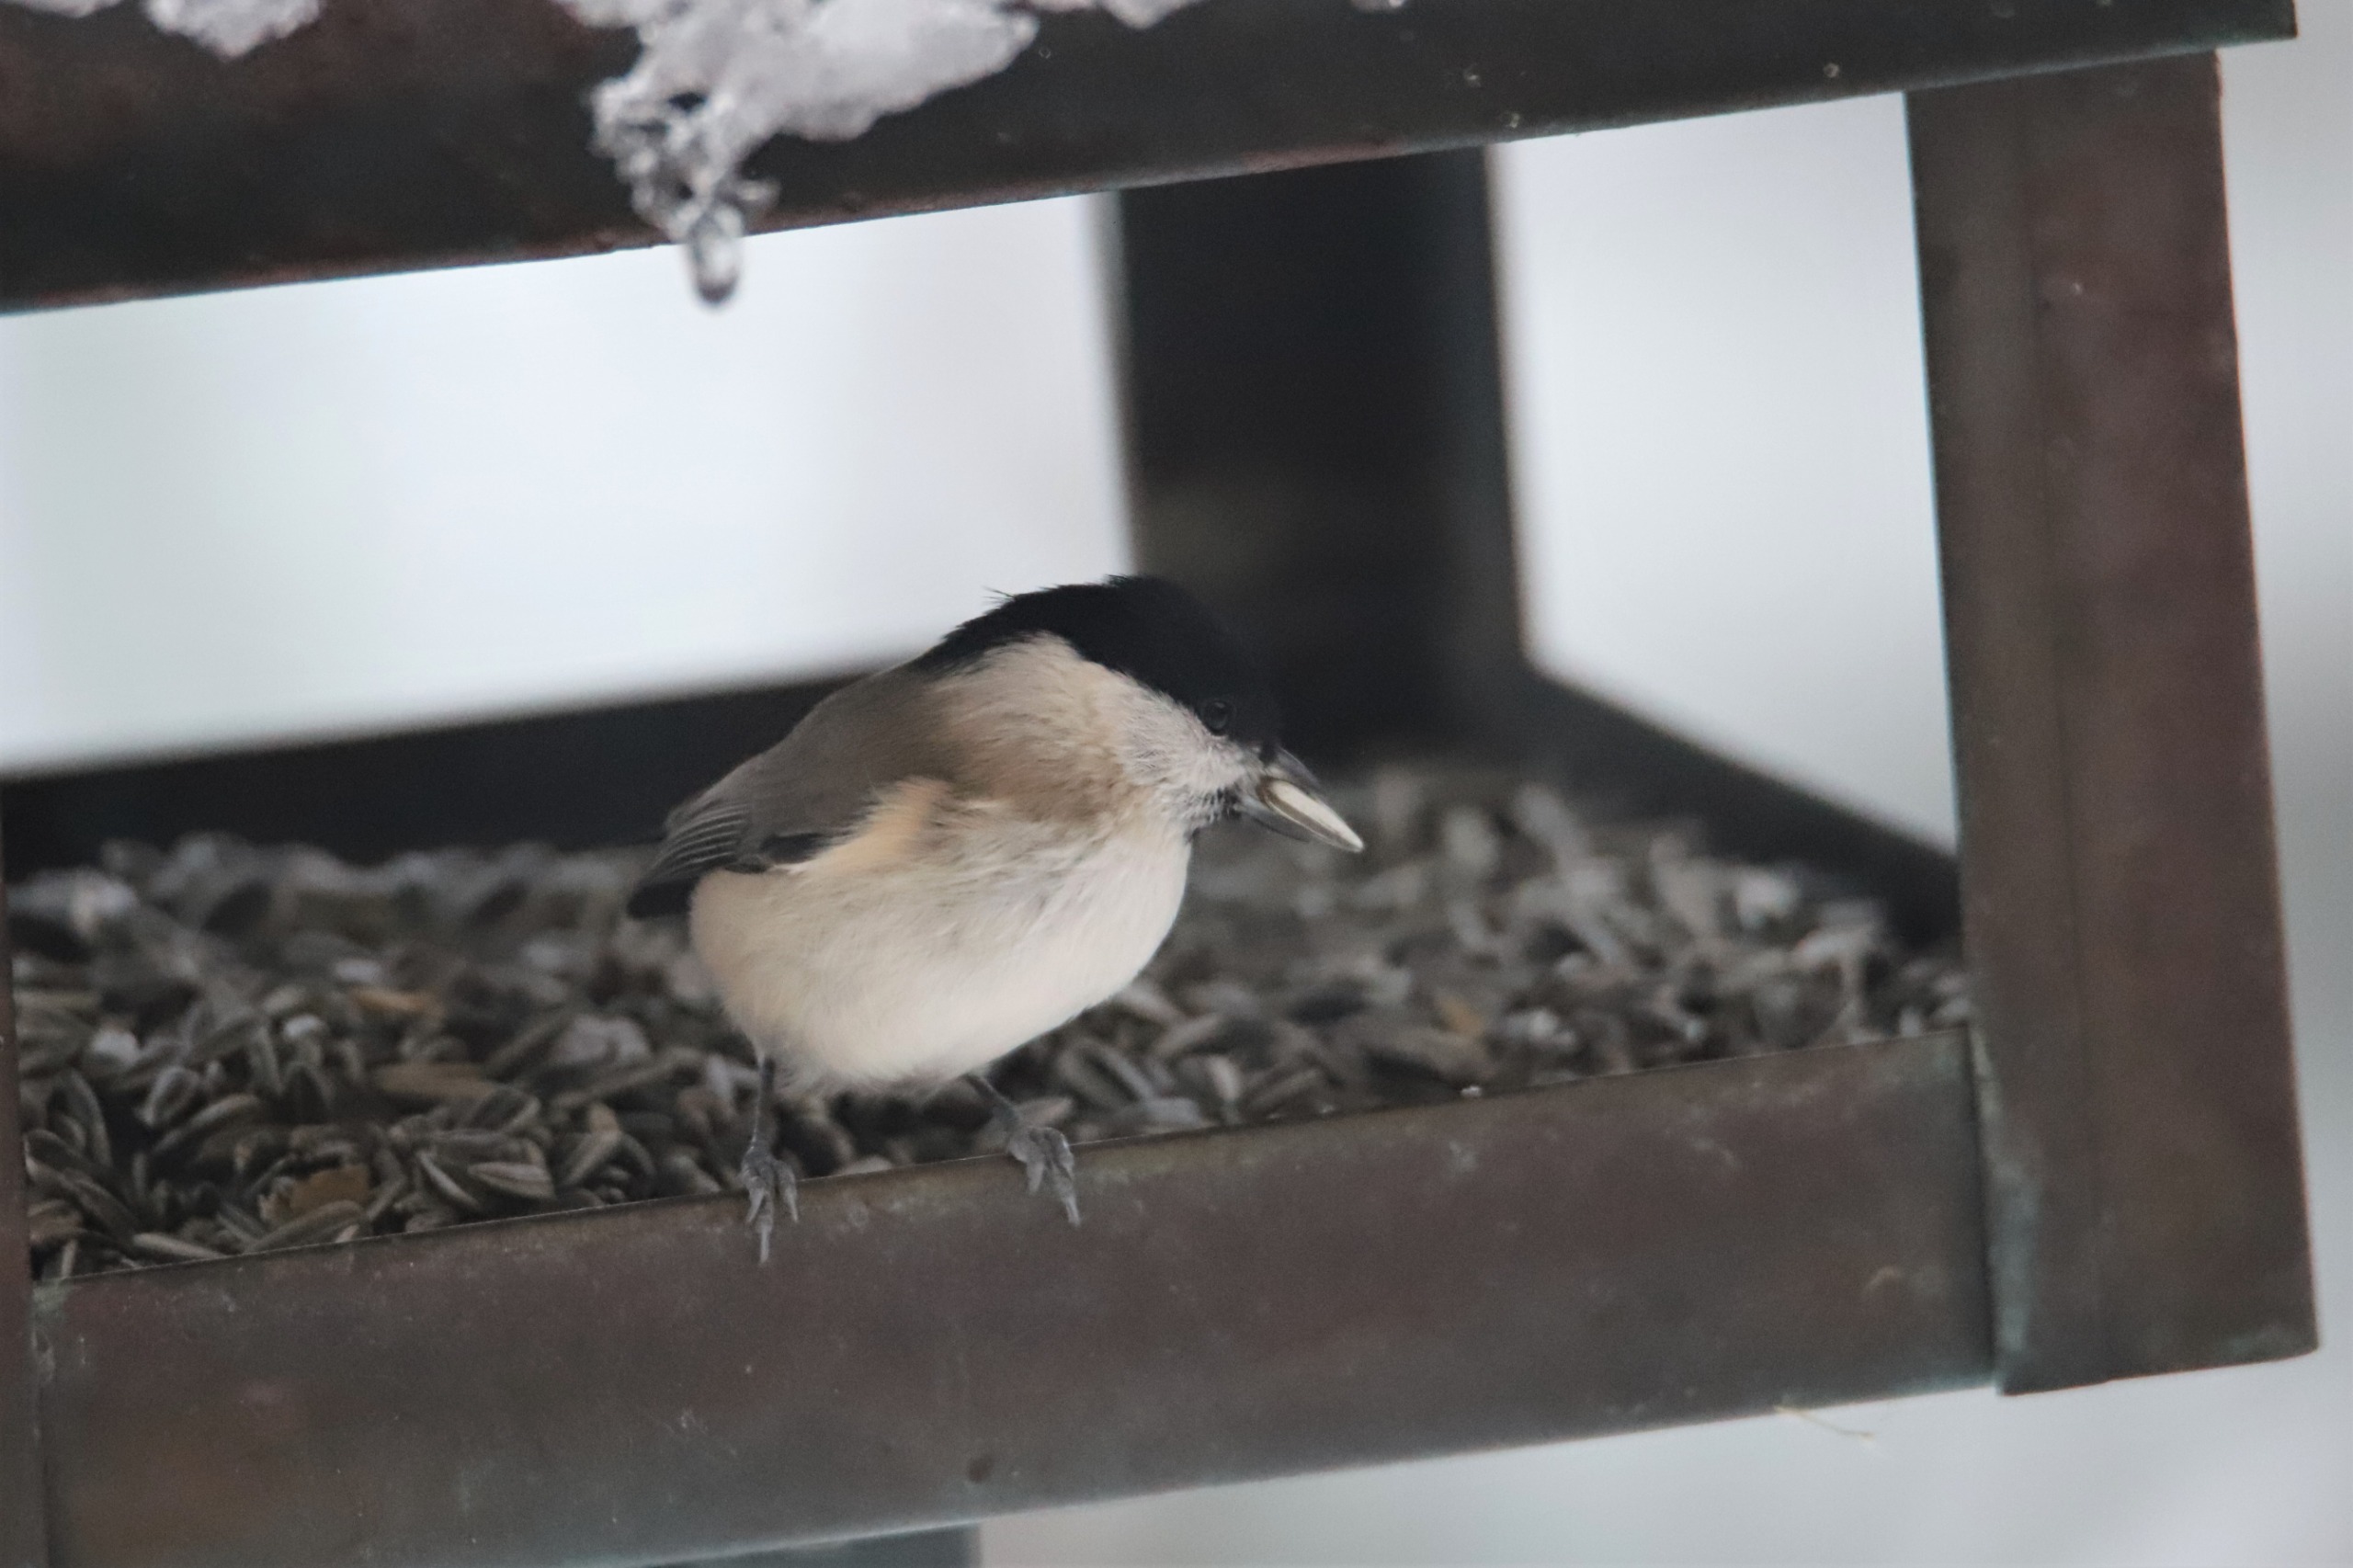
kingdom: Animalia
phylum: Chordata
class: Aves
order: Passeriformes
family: Paridae
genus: Poecile
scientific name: Poecile palustris
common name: Sumpmejse
